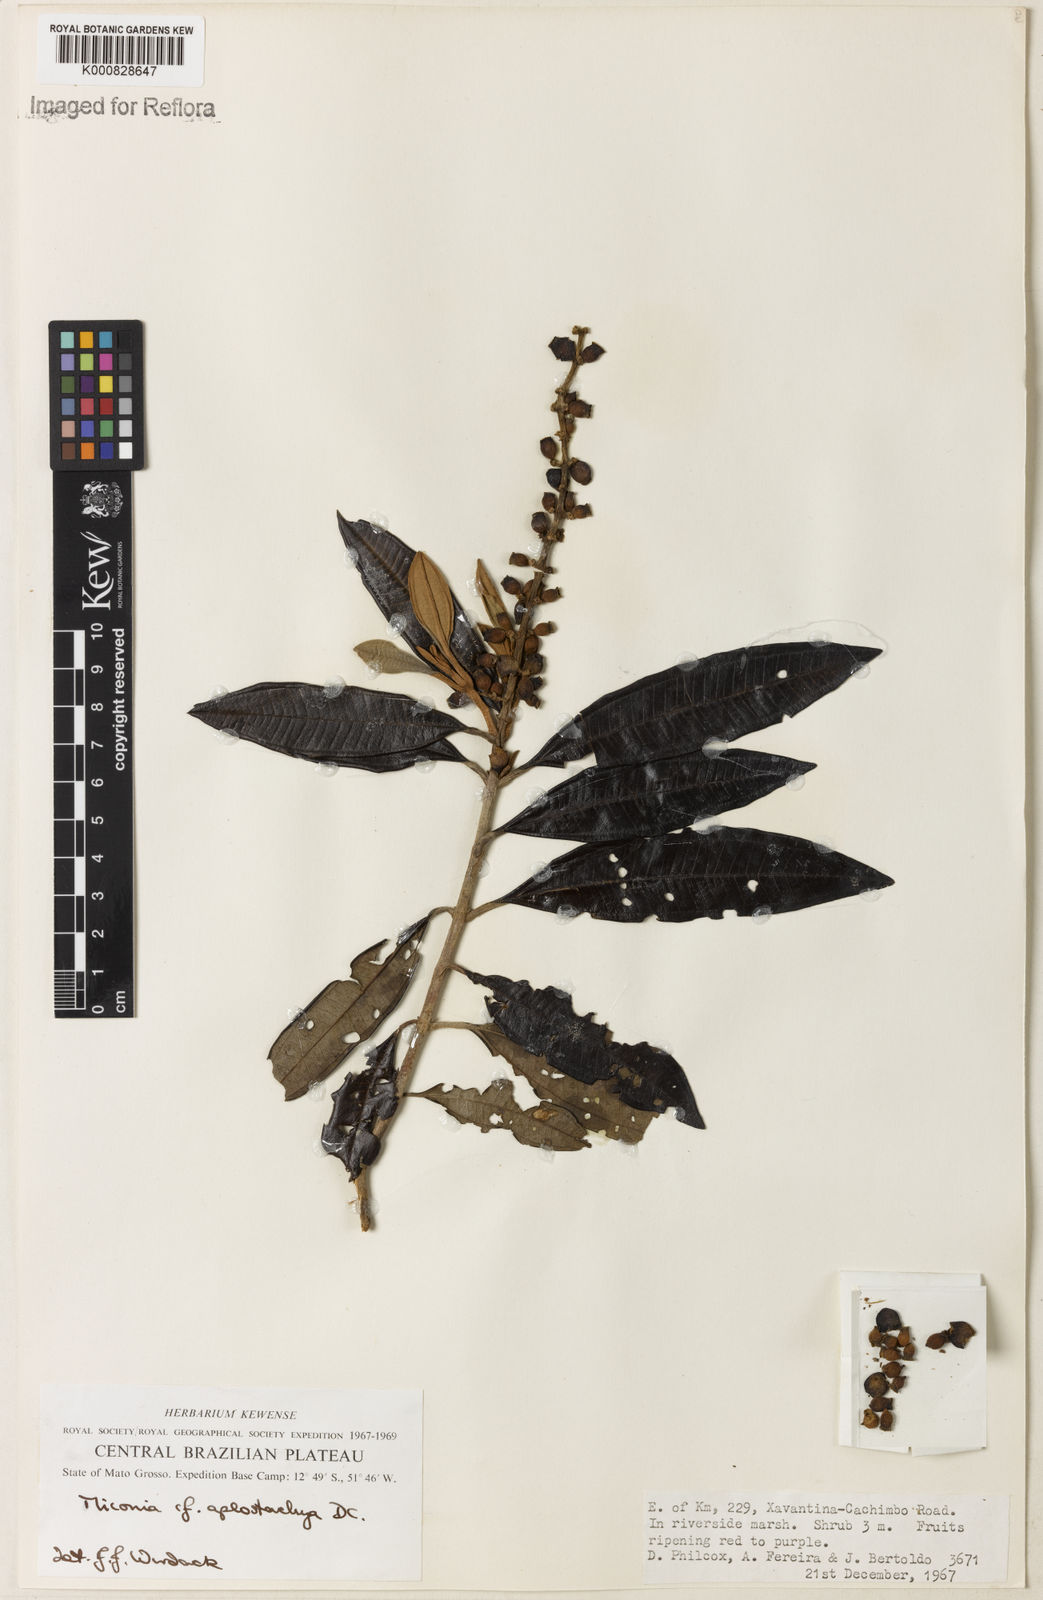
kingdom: Plantae
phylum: Tracheophyta
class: Magnoliopsida
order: Myrtales
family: Melastomataceae
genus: Miconia
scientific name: Miconia aplostachya
